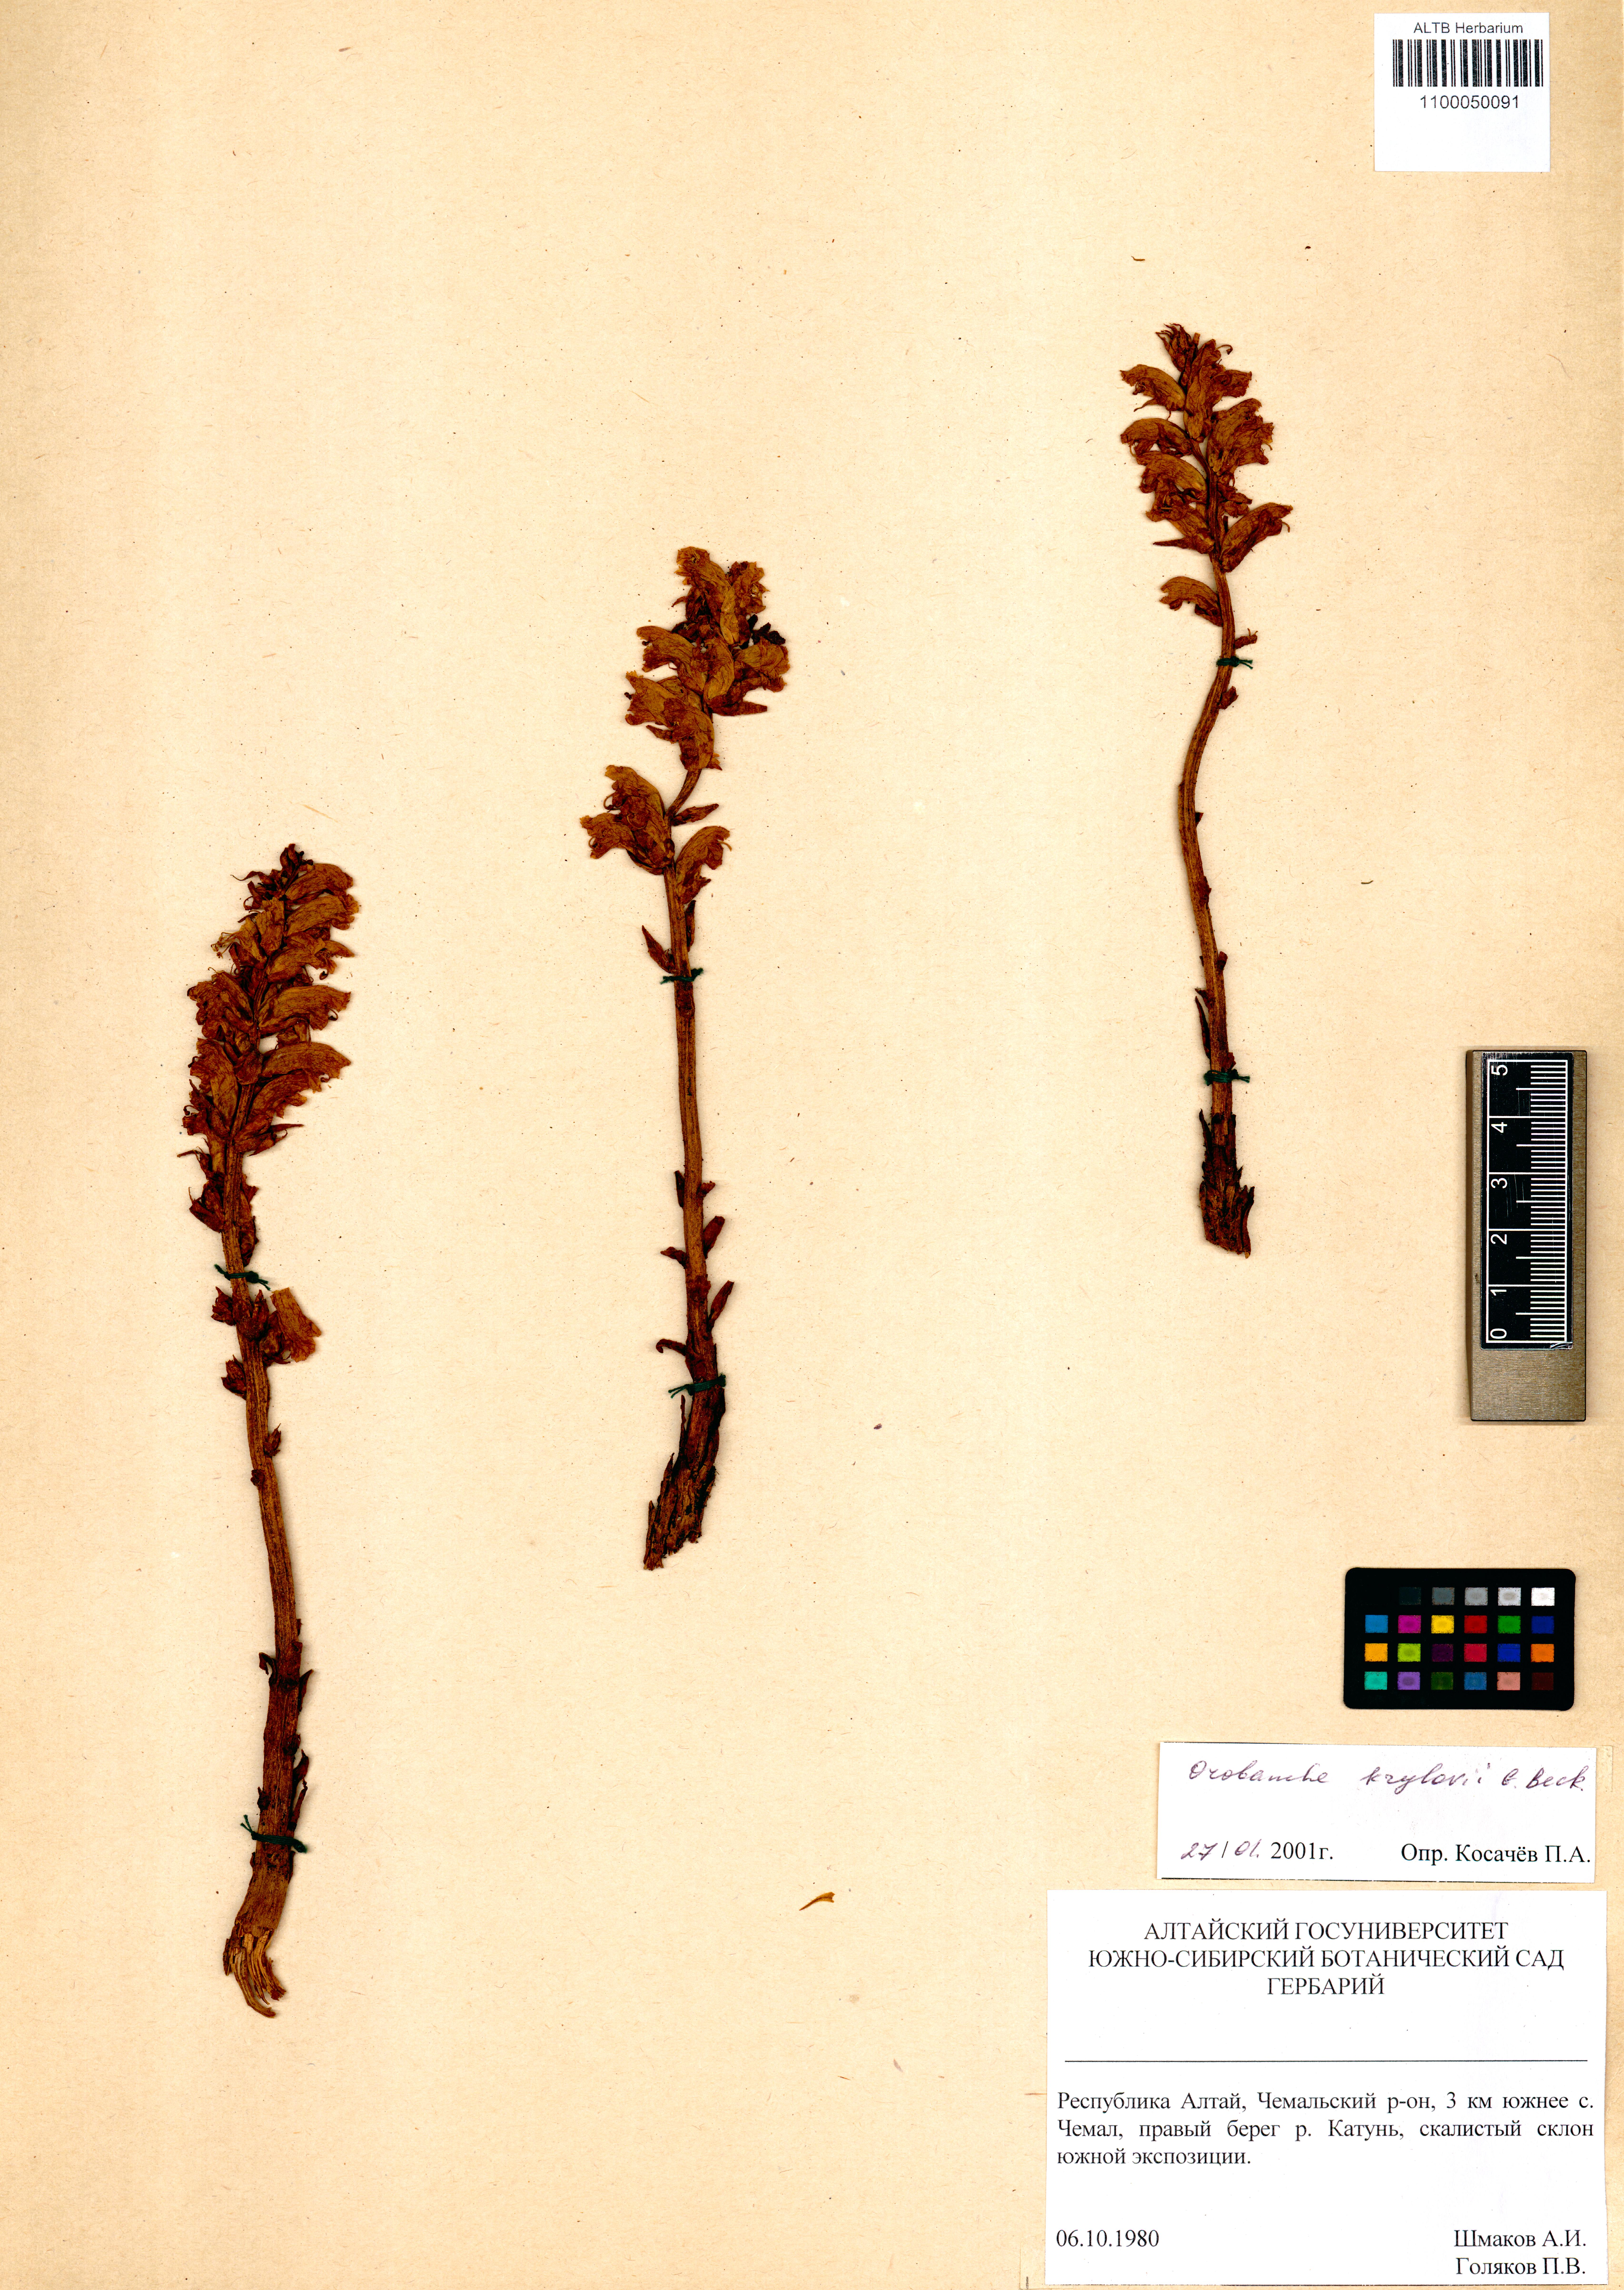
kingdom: Plantae
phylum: Tracheophyta
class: Magnoliopsida
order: Lamiales
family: Orobanchaceae
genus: Orobanche
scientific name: Orobanche krylowii
